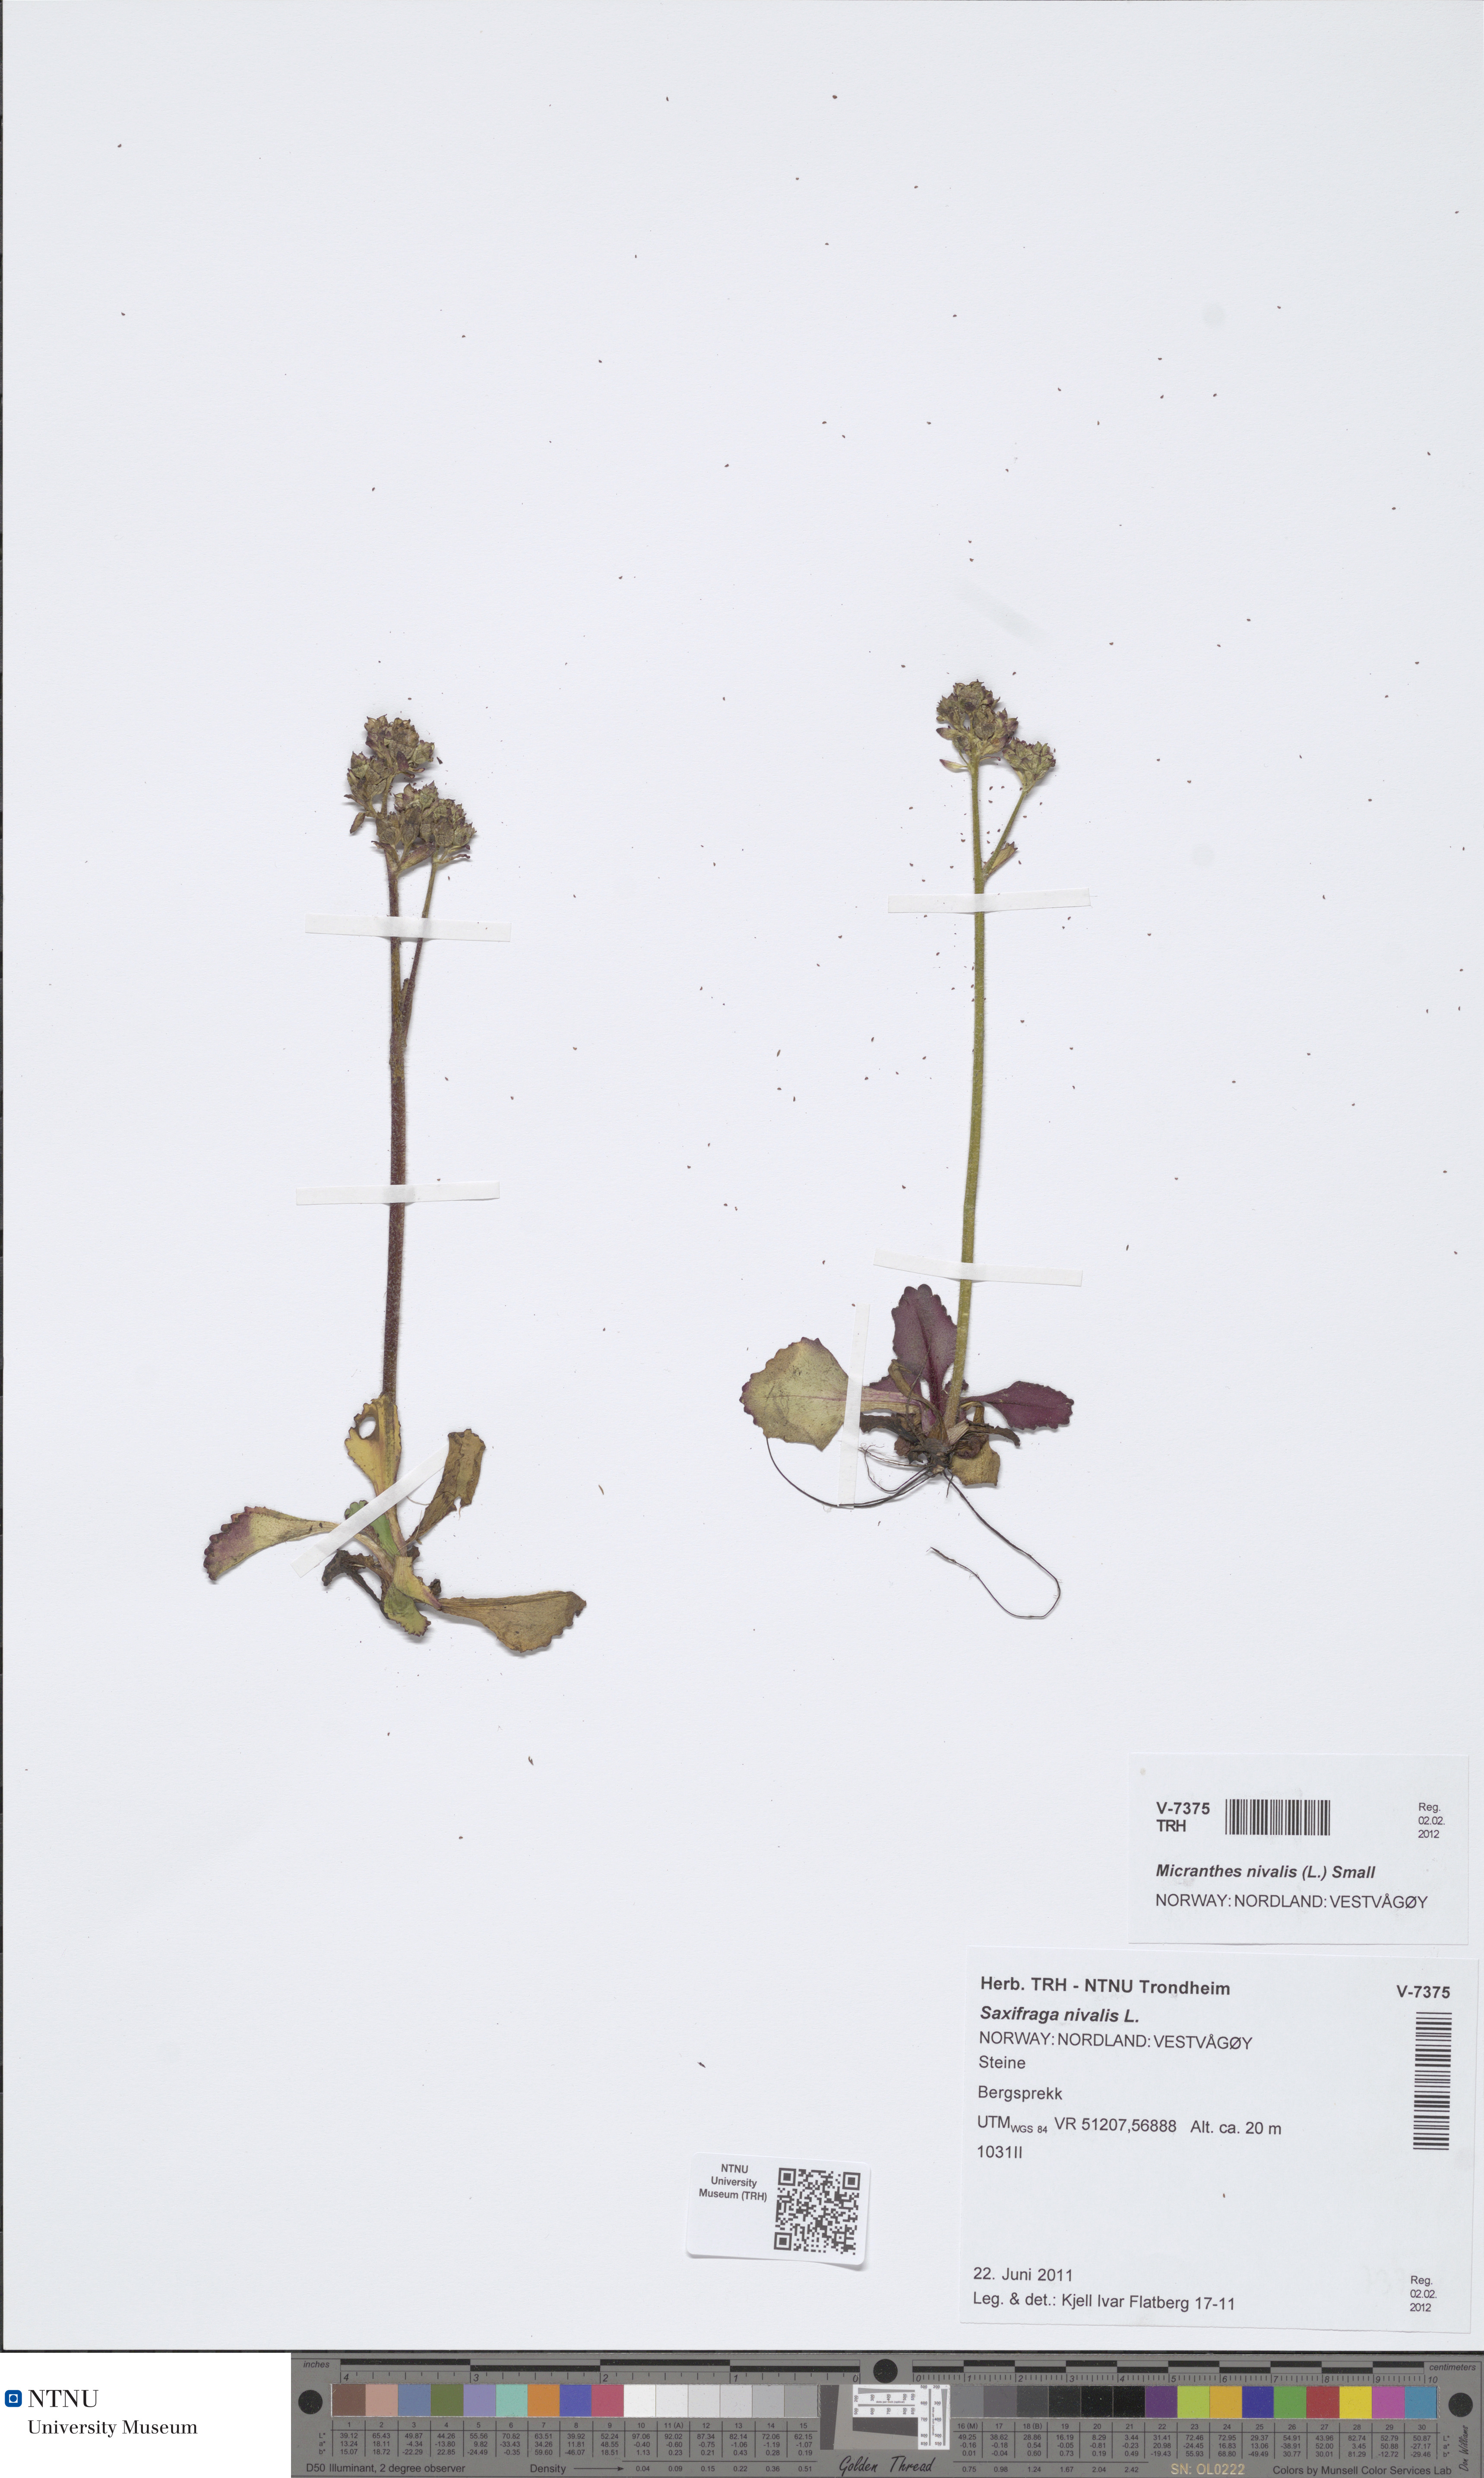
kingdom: Plantae
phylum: Tracheophyta
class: Magnoliopsida
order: Saxifragales
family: Saxifragaceae
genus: Micranthes
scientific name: Micranthes nivalis
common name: Alpine saxifrage
